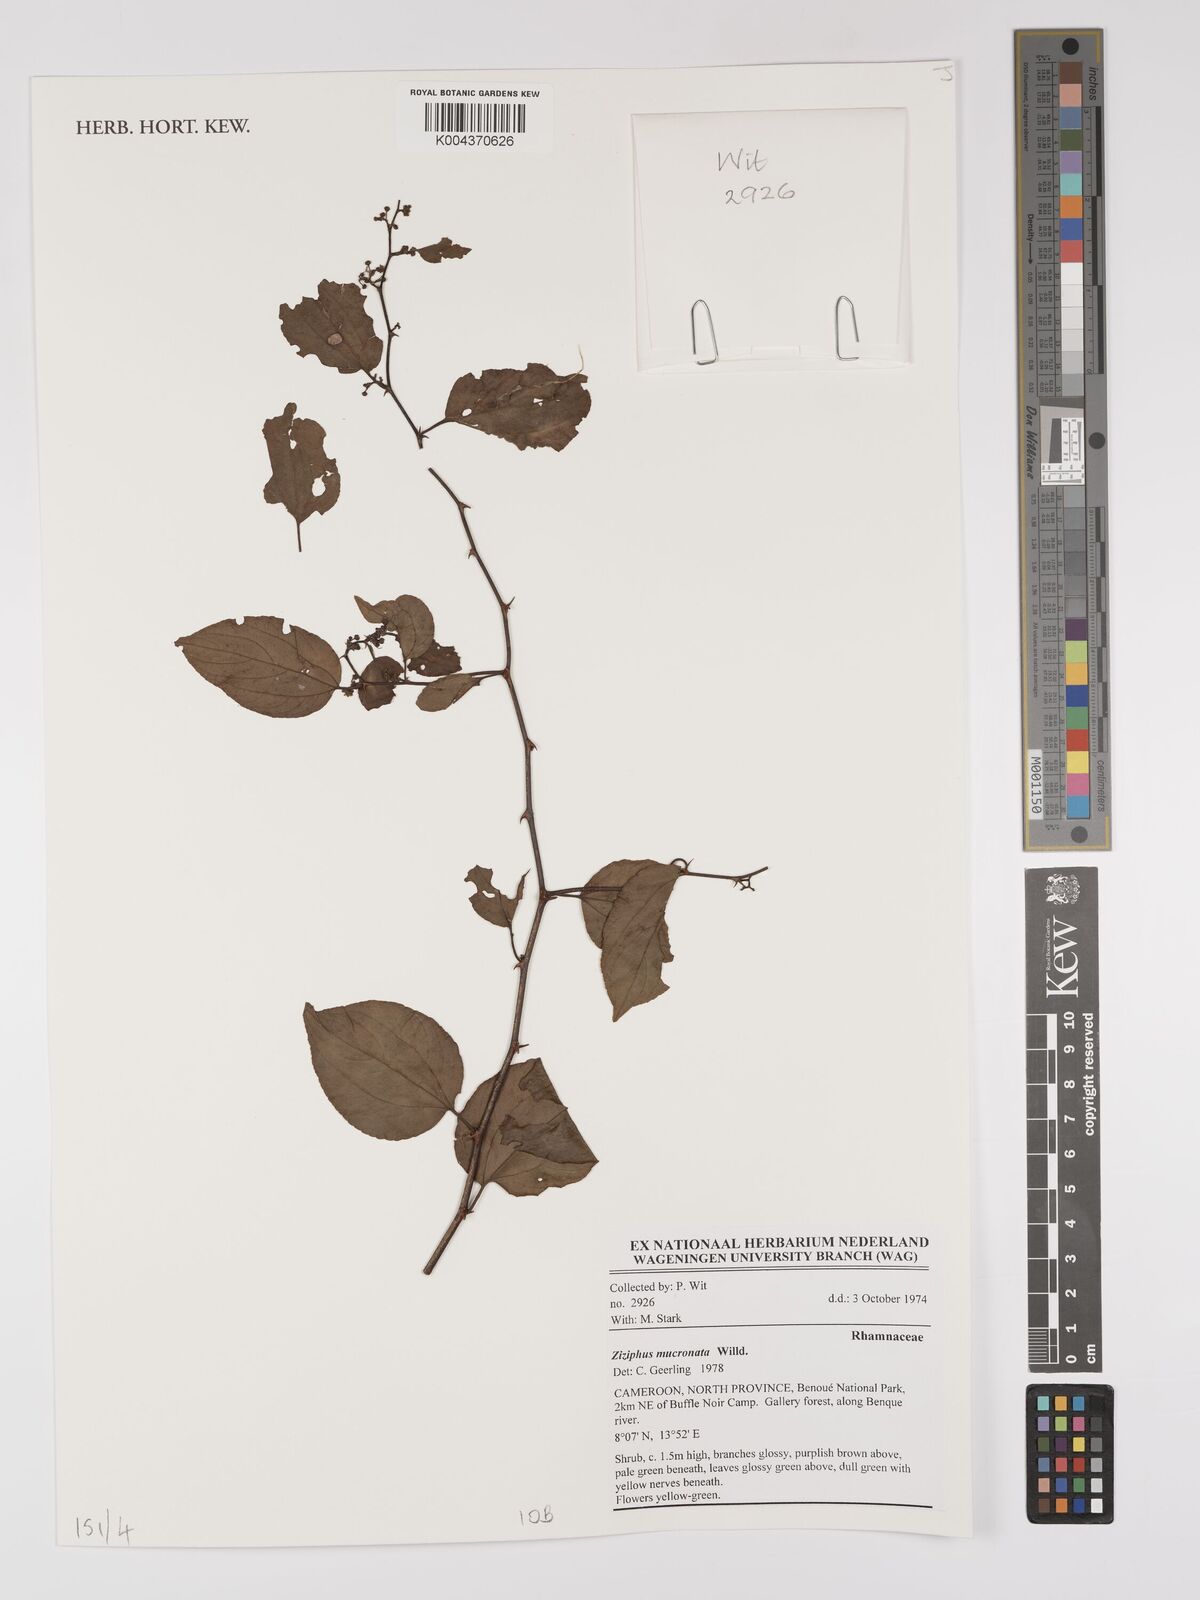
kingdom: Plantae
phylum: Tracheophyta
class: Magnoliopsida
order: Rosales
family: Rhamnaceae
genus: Ziziphus
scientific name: Ziziphus mucronata
